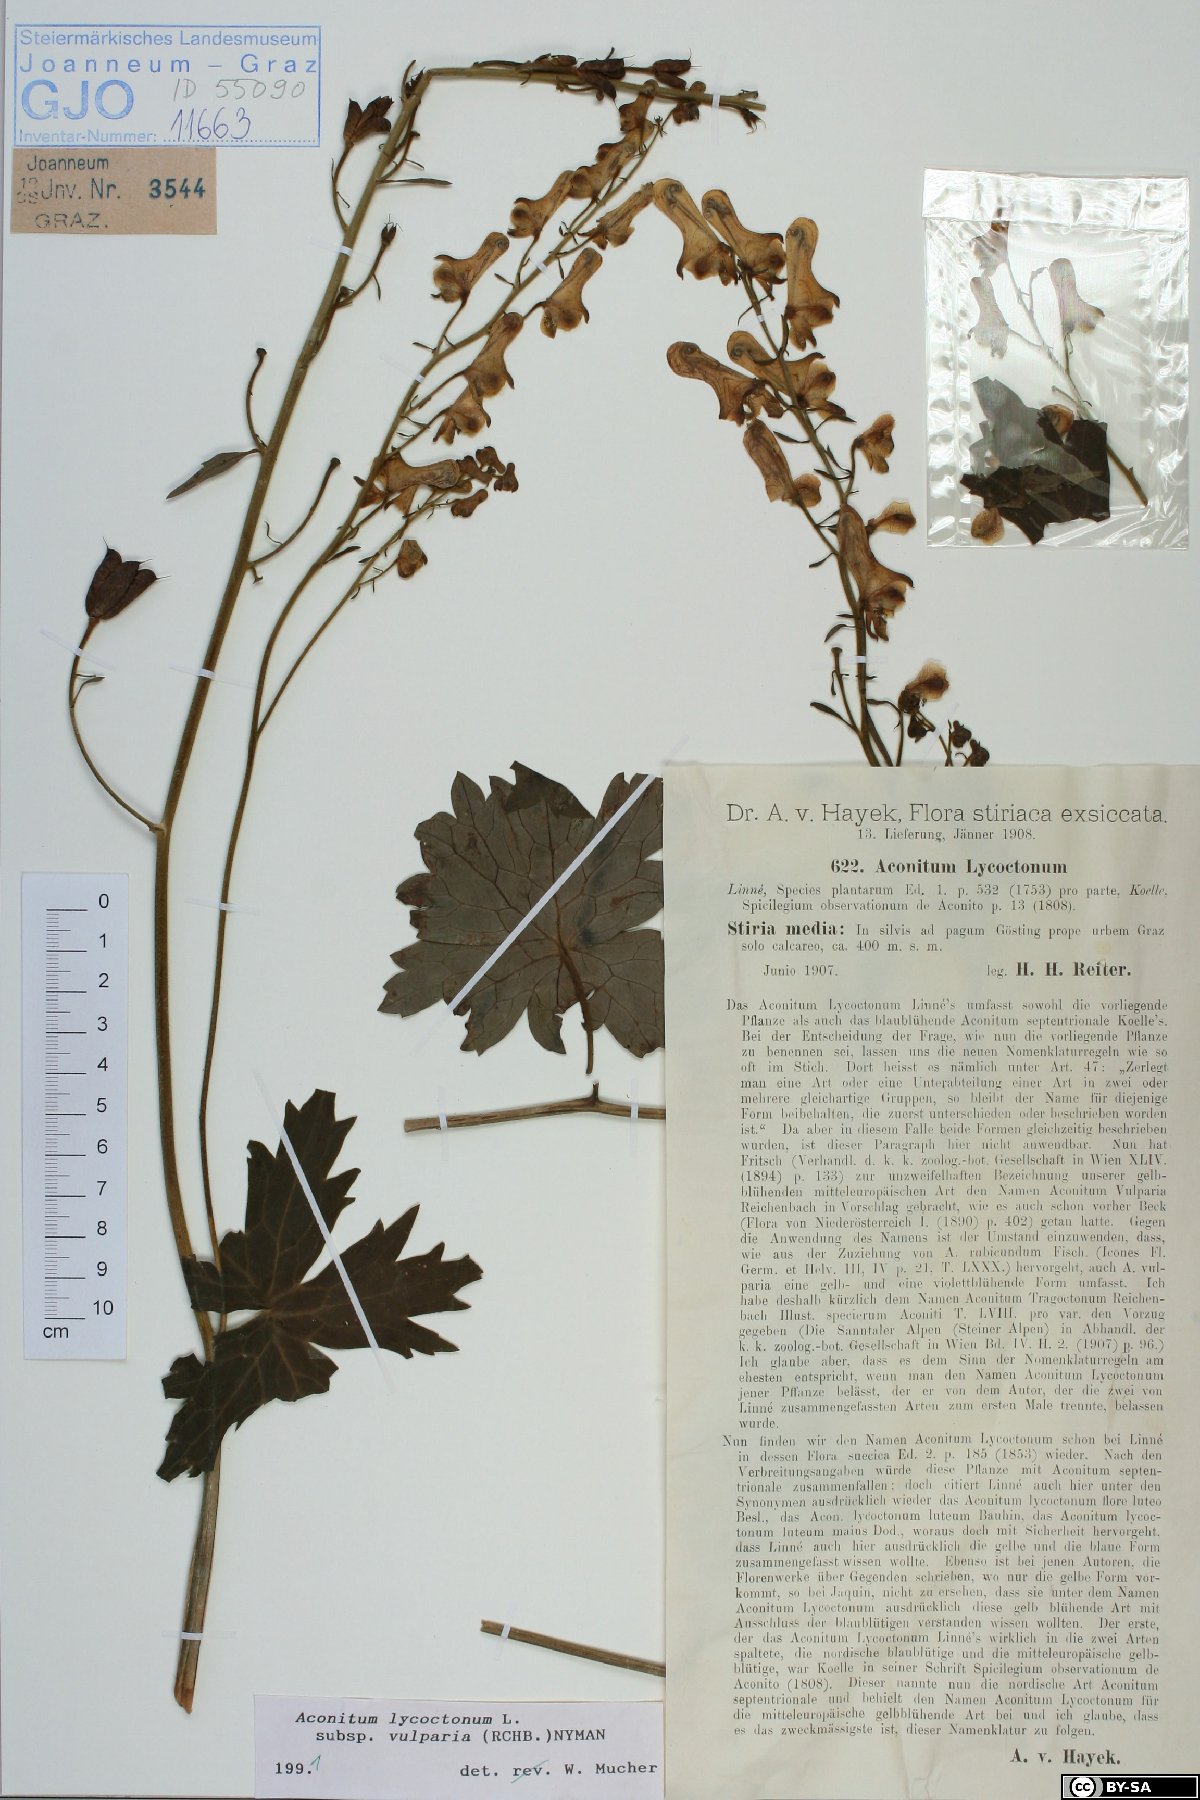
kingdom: Plantae
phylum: Tracheophyta
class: Magnoliopsida
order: Ranunculales
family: Ranunculaceae
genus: Aconitum
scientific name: Aconitum lycoctonum
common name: Wolf's-bane
